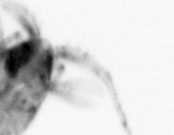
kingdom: Animalia
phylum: Arthropoda
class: Copepoda
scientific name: Copepoda
